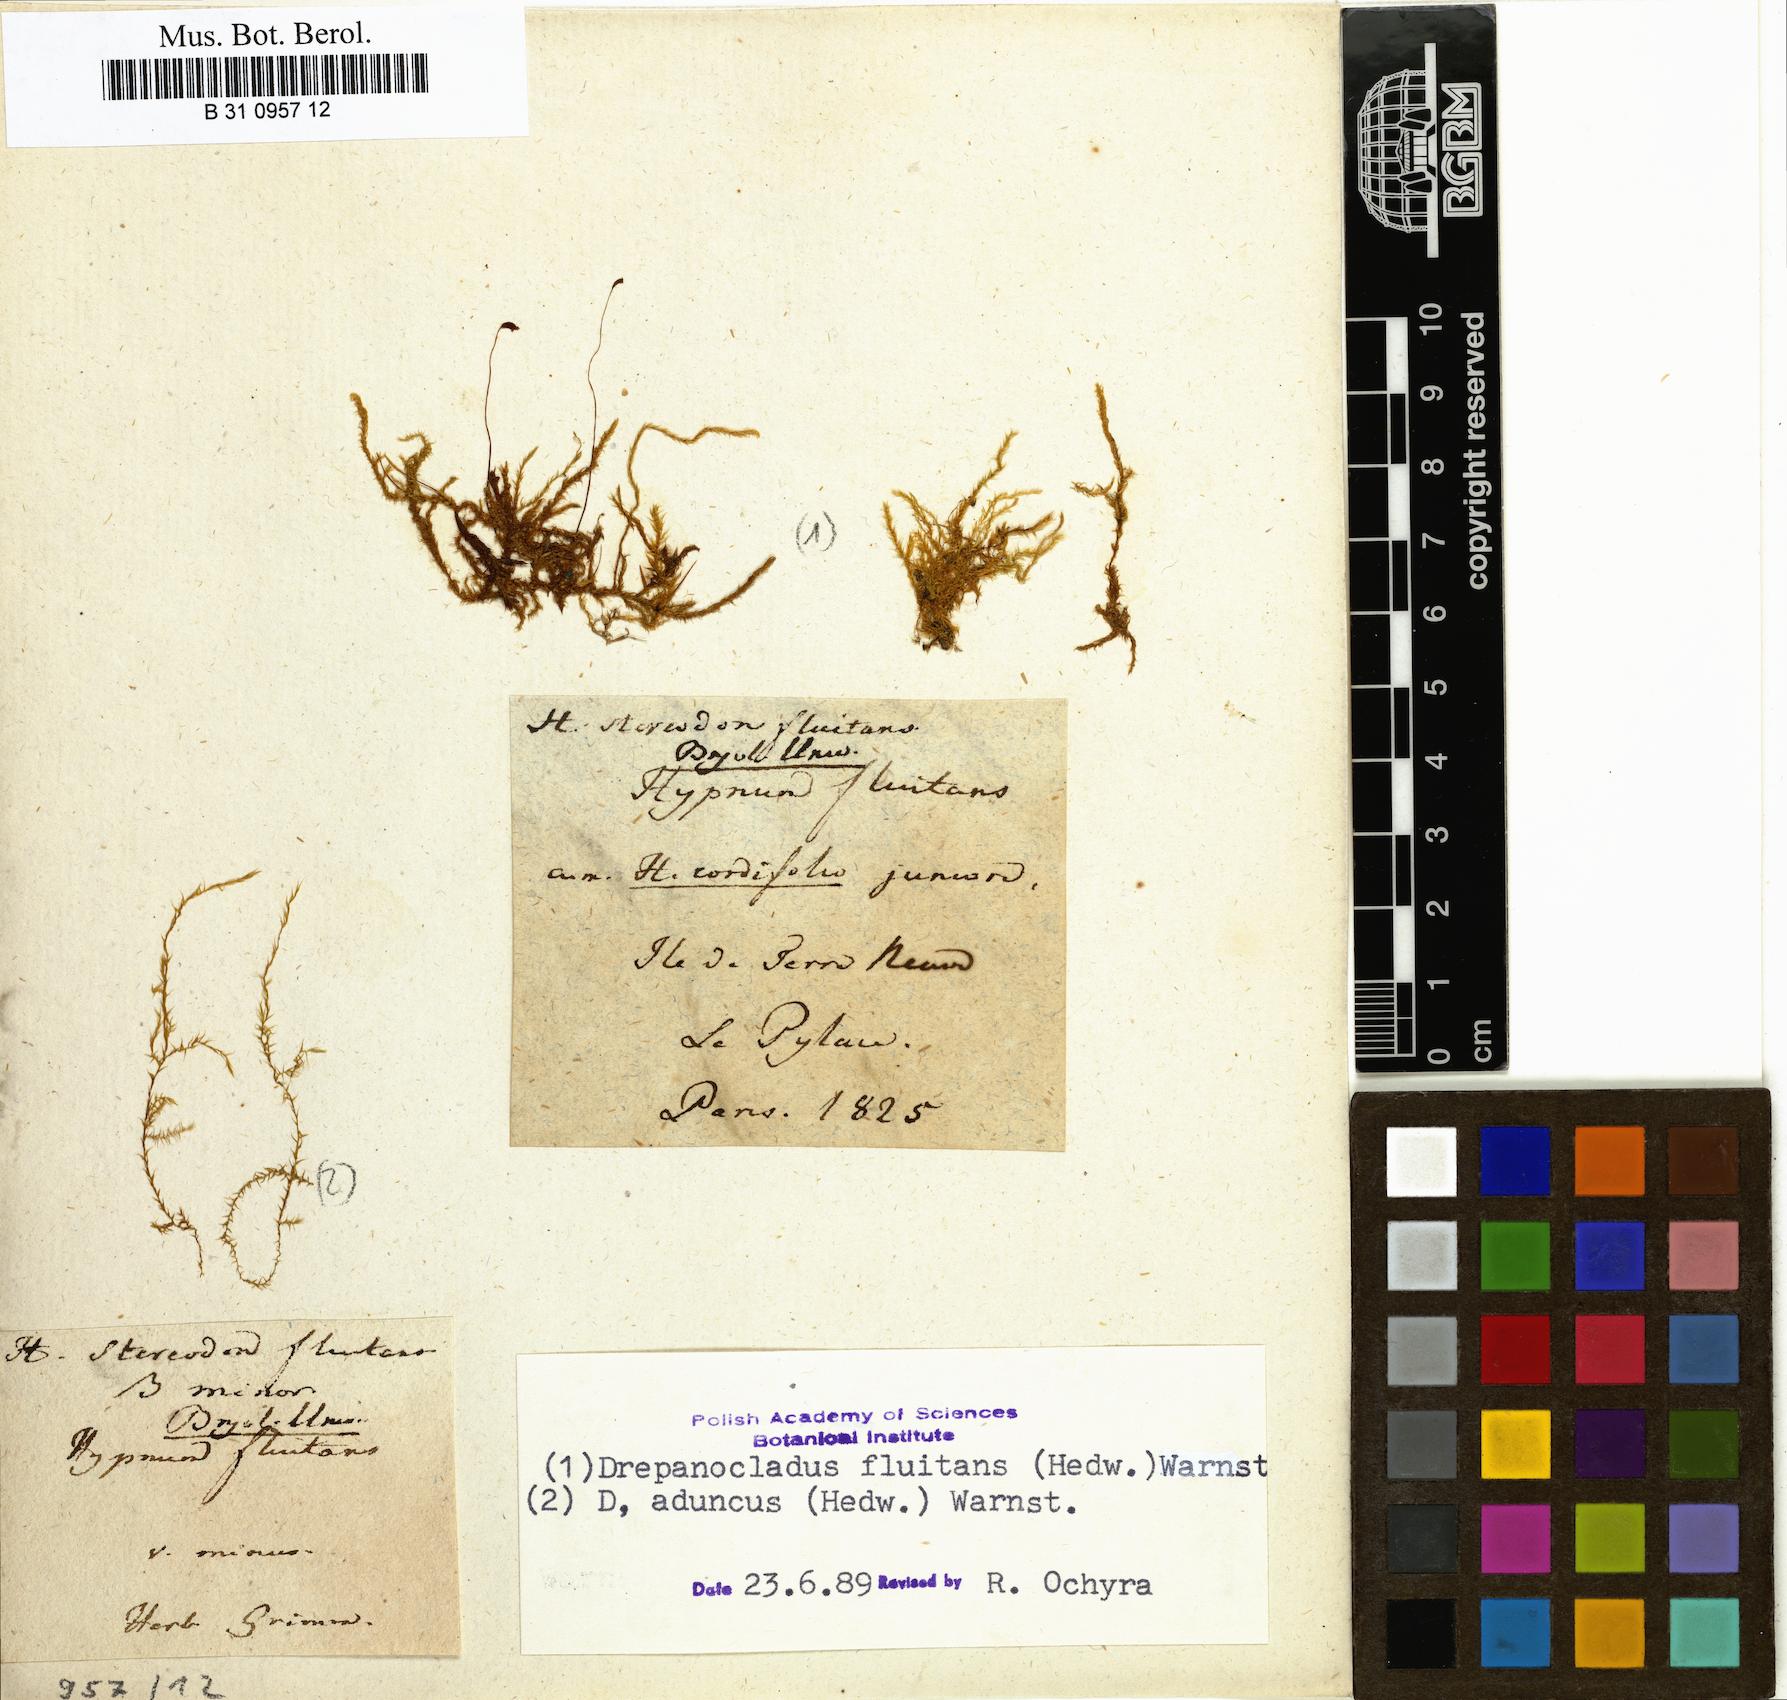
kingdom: Plantae
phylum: Bryophyta
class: Bryopsida
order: Hypnales
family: Calliergonaceae
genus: Warnstorfia
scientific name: Warnstorfia fluitans
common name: Floating hook moss
